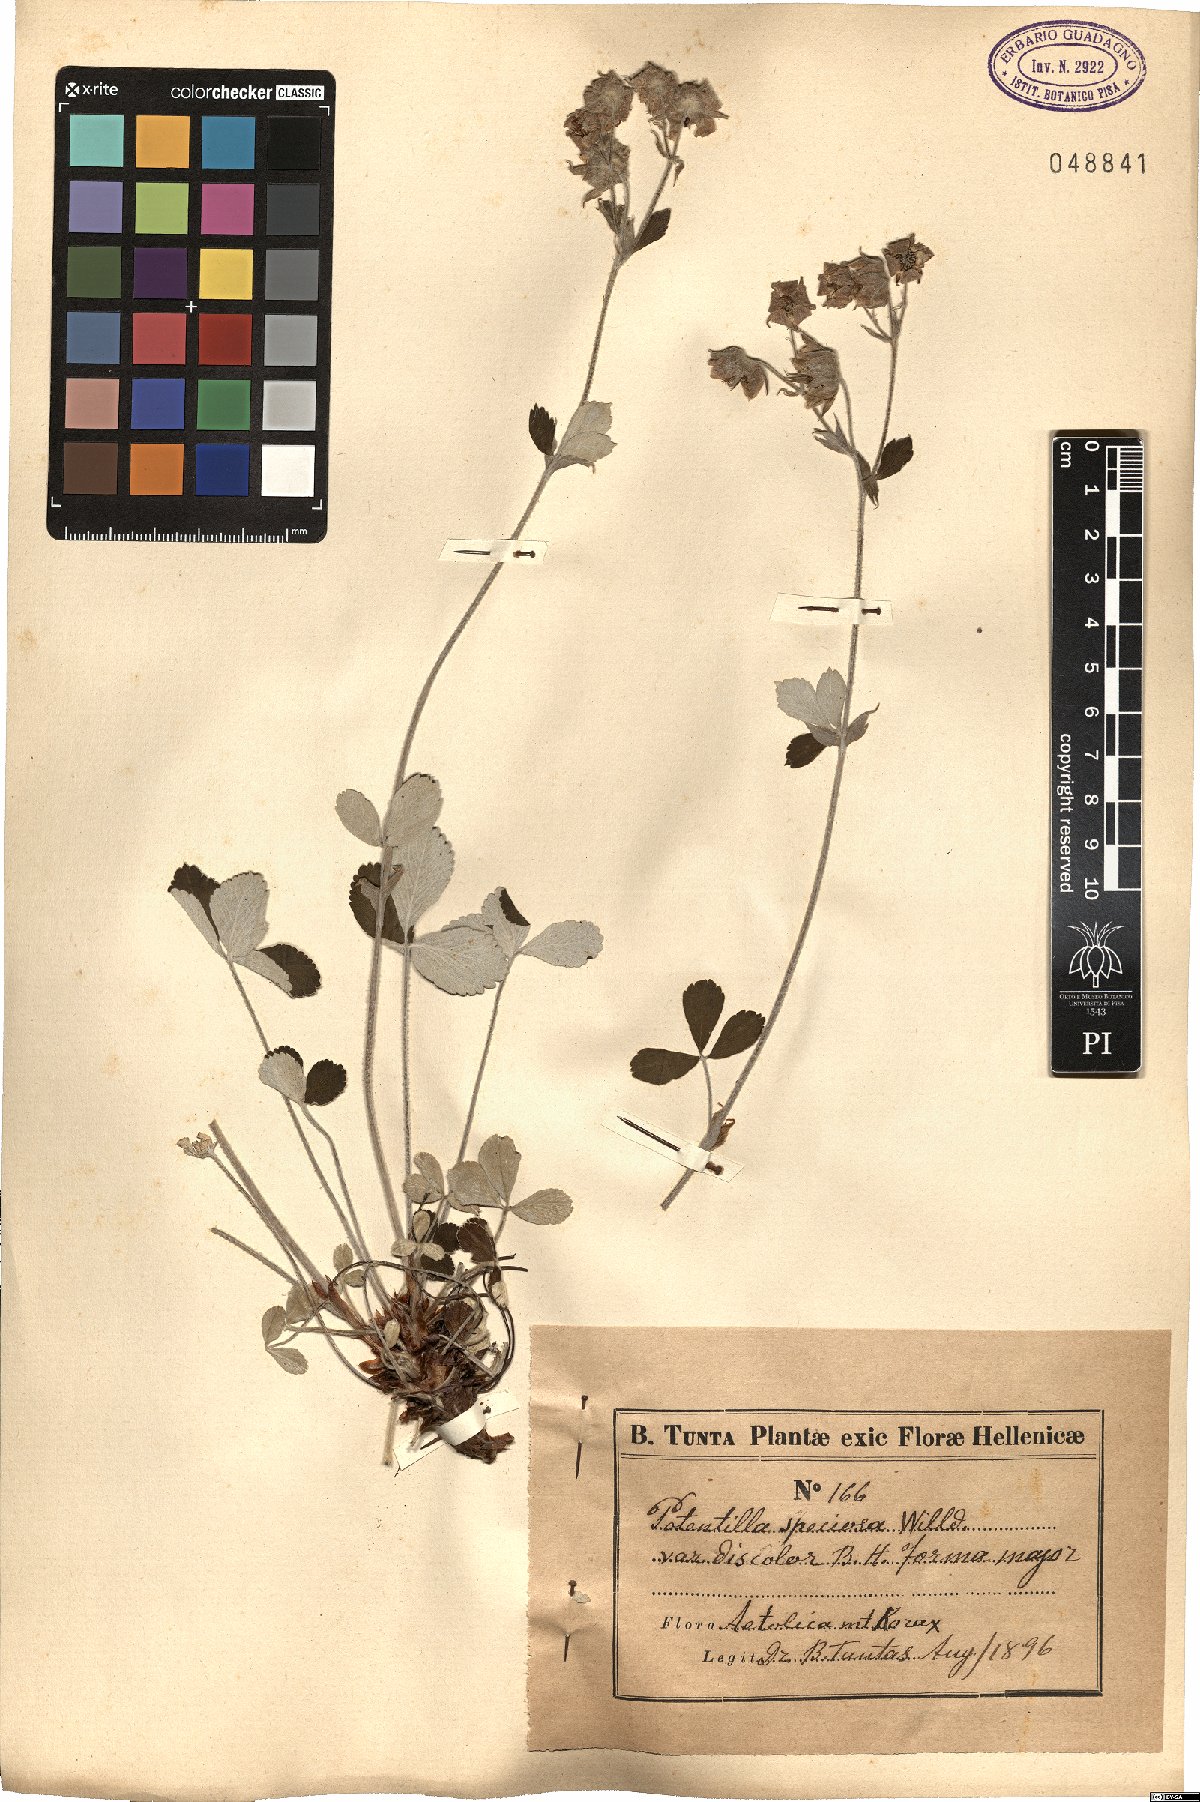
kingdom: Plantae
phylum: Tracheophyta
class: Magnoliopsida
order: Rosales
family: Rosaceae
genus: Potentilla
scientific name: Potentilla speciosa
